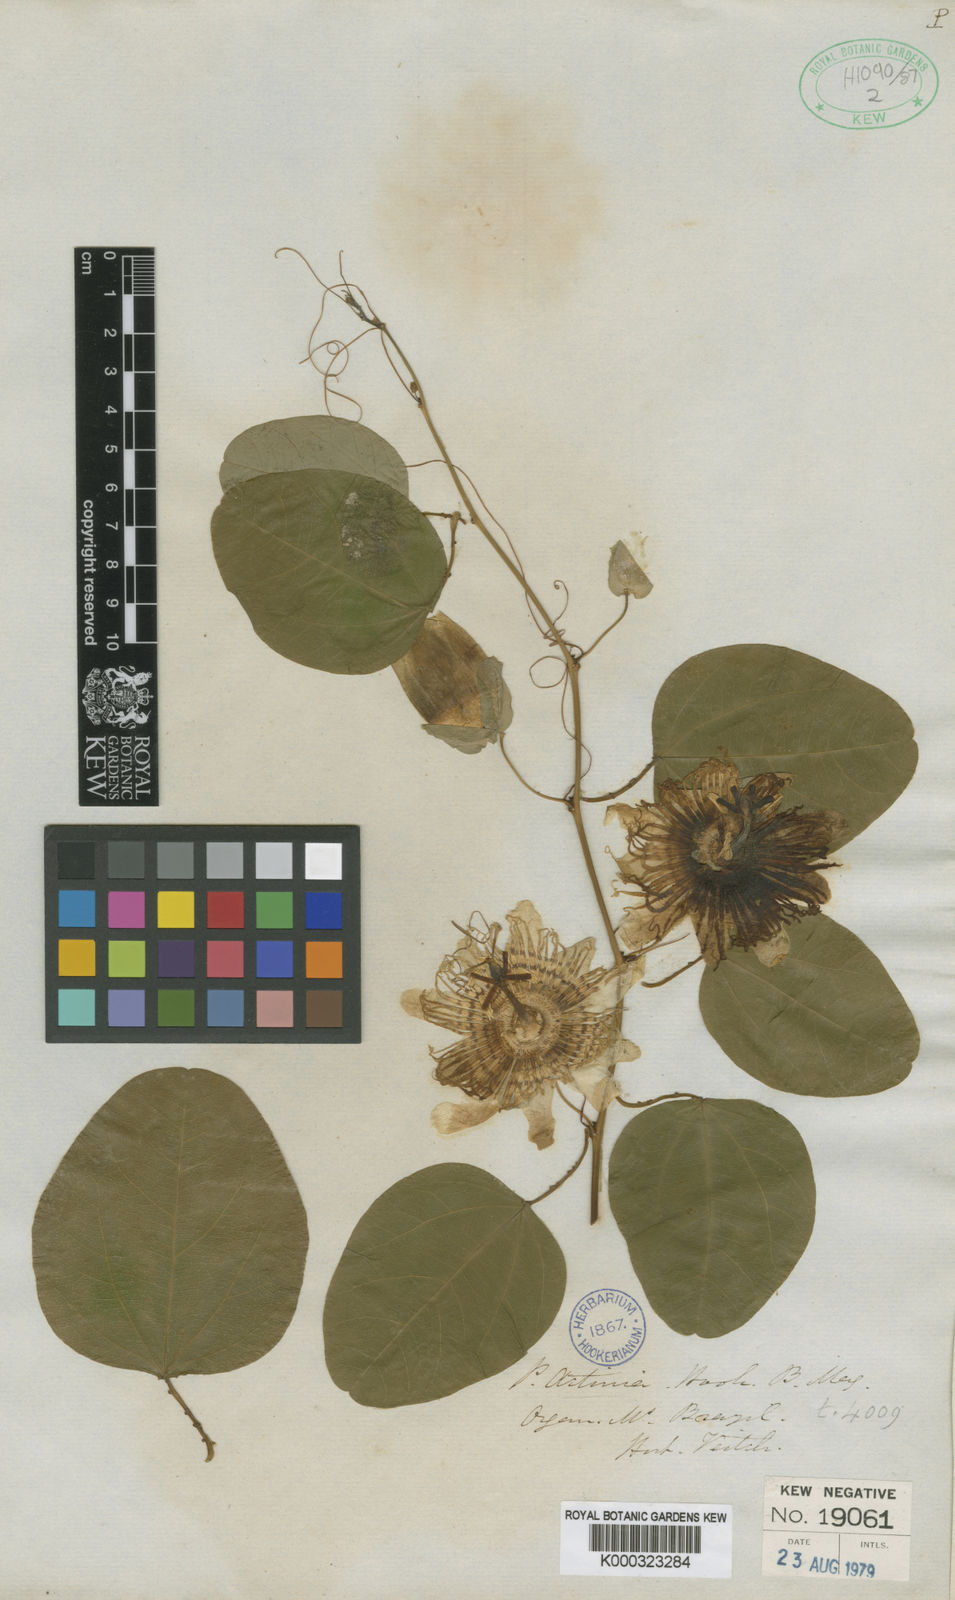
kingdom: Plantae
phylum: Tracheophyta
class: Magnoliopsida
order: Malpighiales
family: Passifloraceae
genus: Passiflora
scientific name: Passiflora actinia
